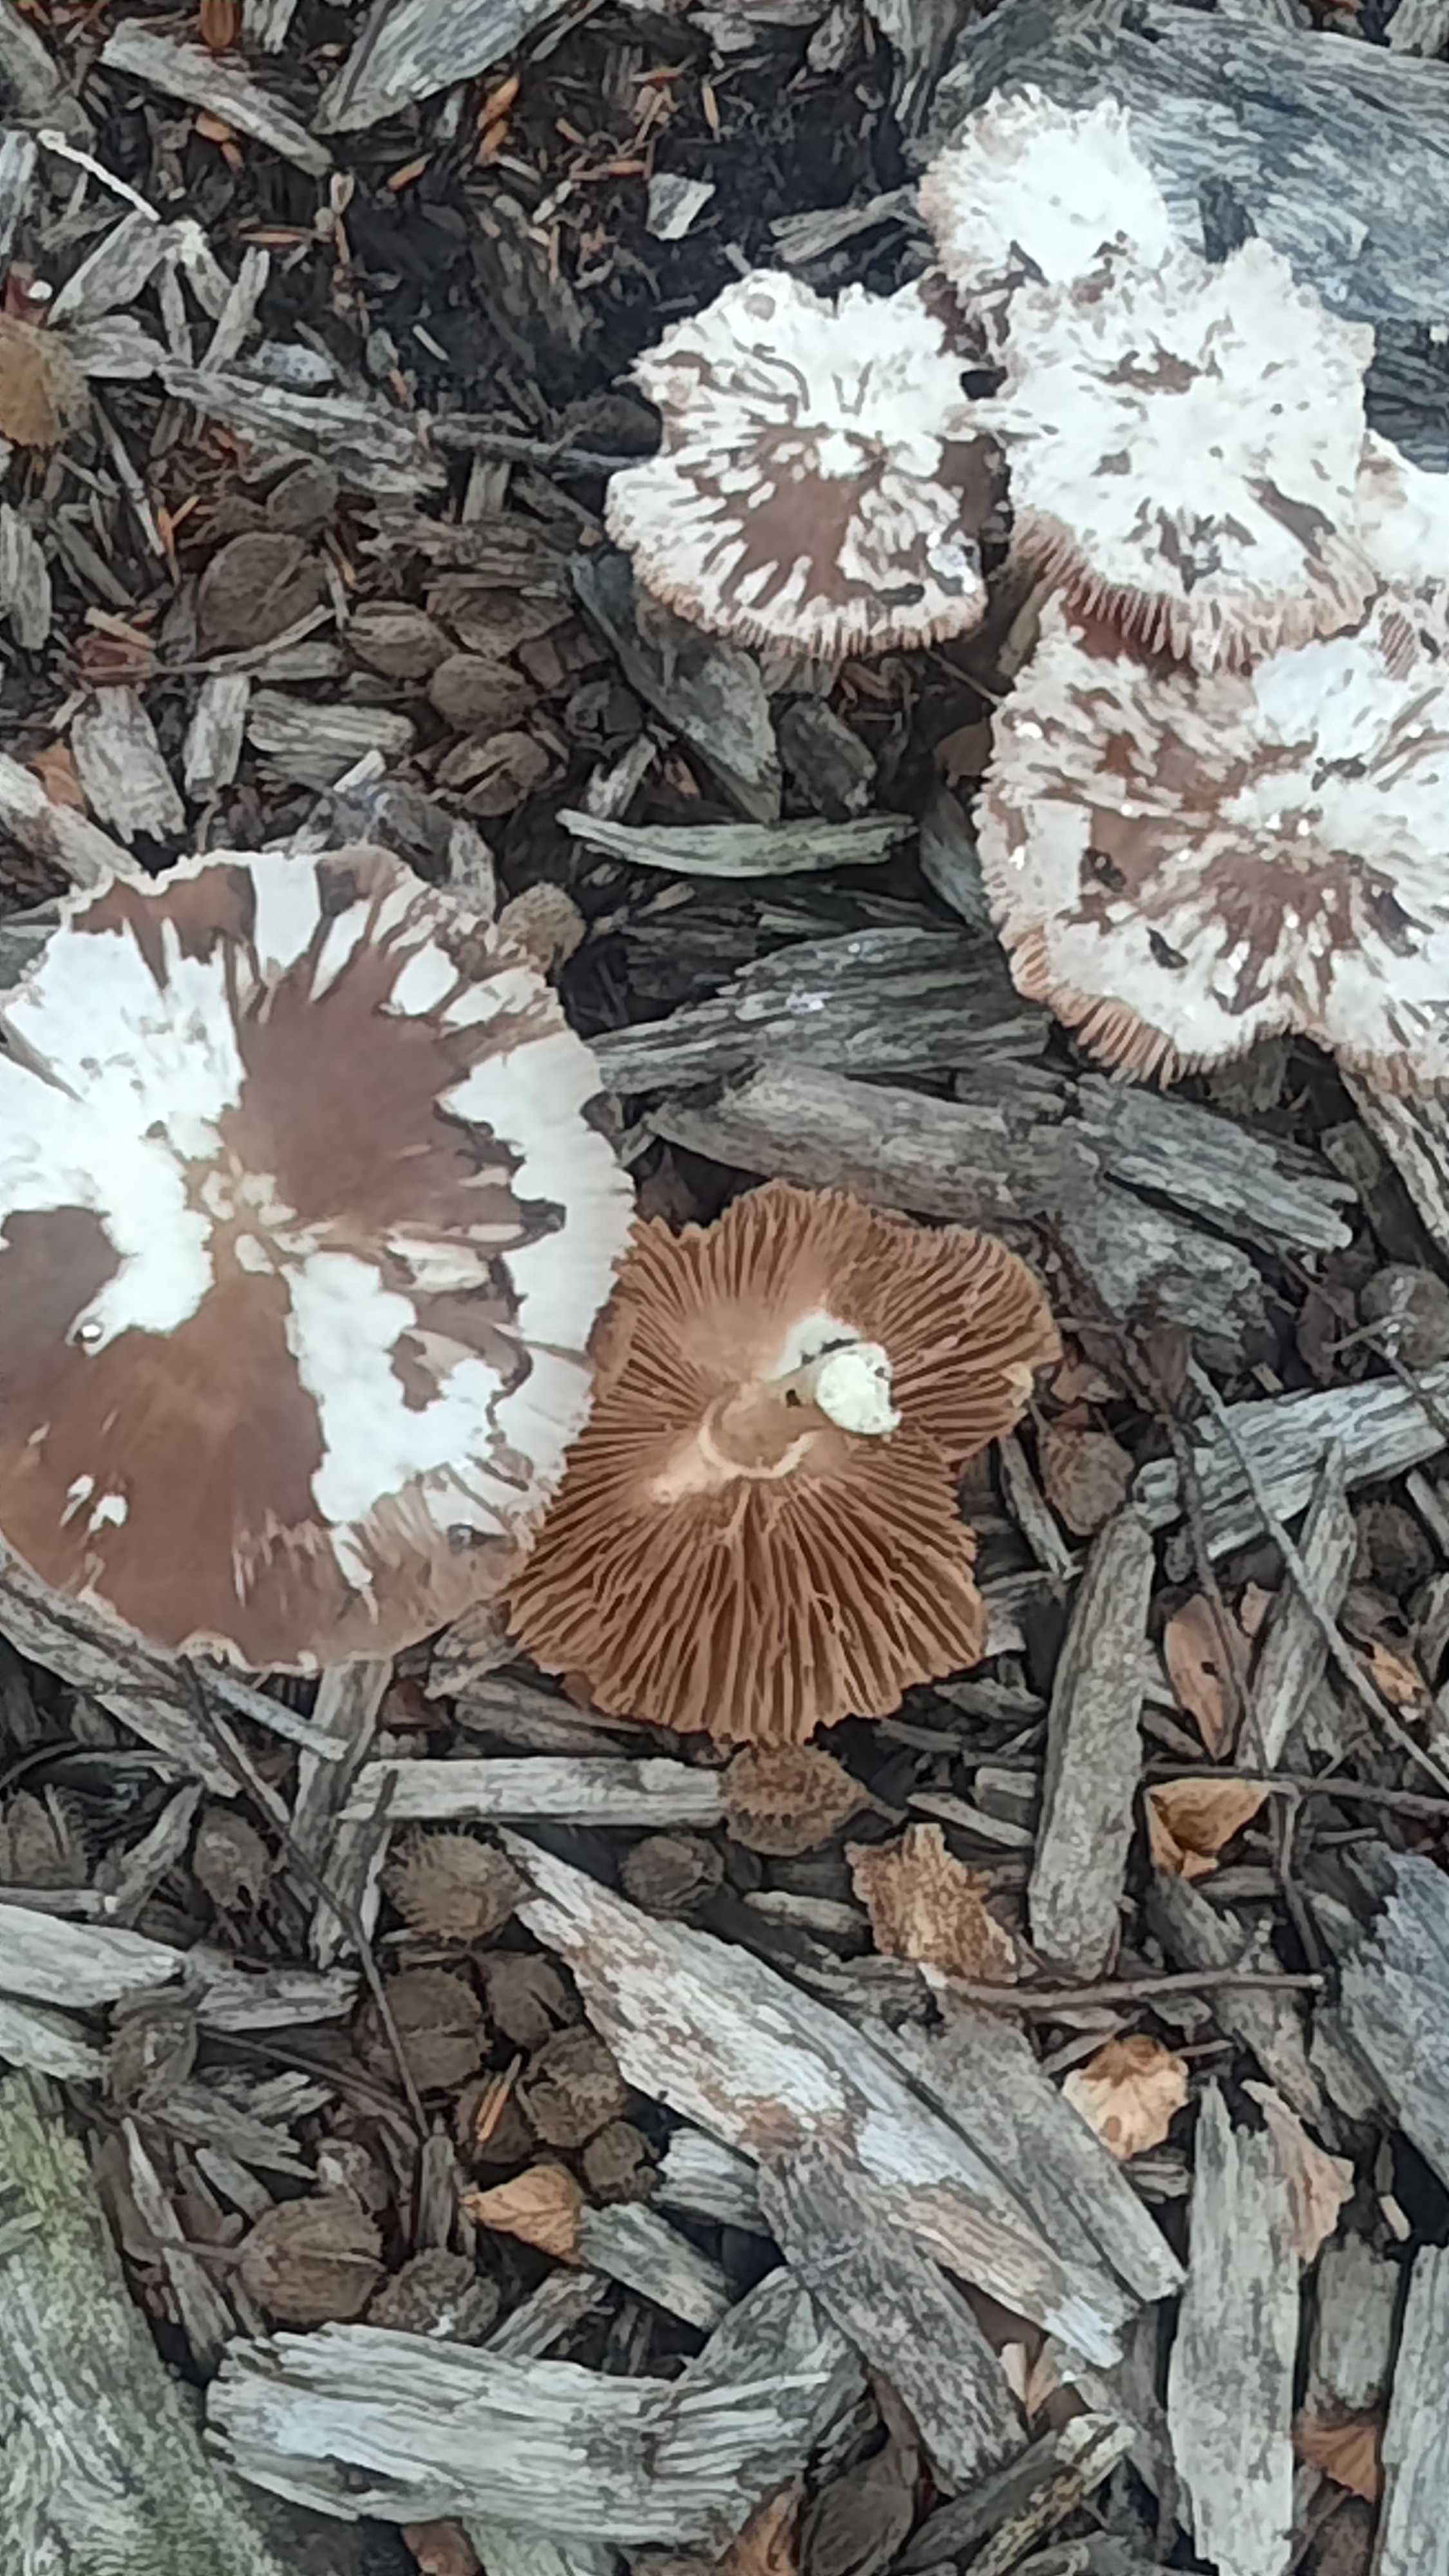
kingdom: Fungi
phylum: Basidiomycota
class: Agaricomycetes
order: Agaricales
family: Pluteaceae
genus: Pluteus
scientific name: Pluteus cervinus
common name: sodfarvet skærmhat
